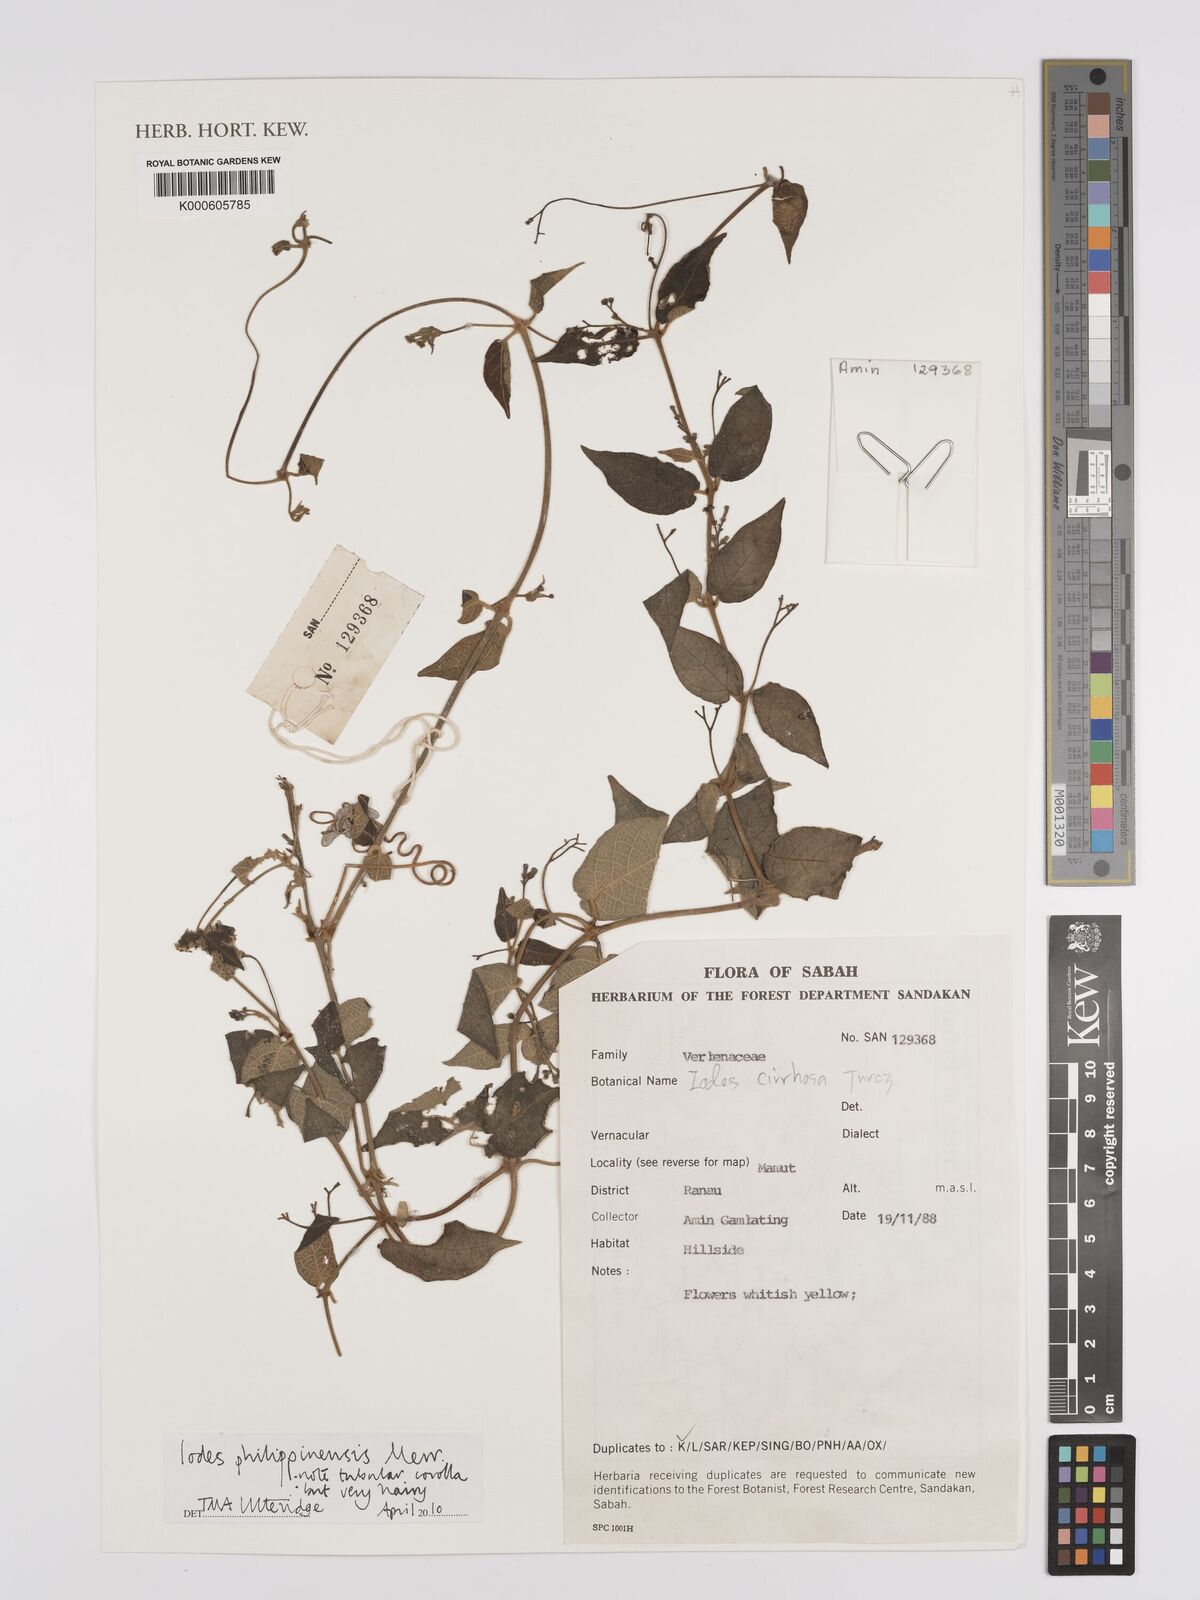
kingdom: Plantae
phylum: Tracheophyta
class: Magnoliopsida
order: Icacinales
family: Icacinaceae
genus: Iodes
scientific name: Iodes philippinensis
